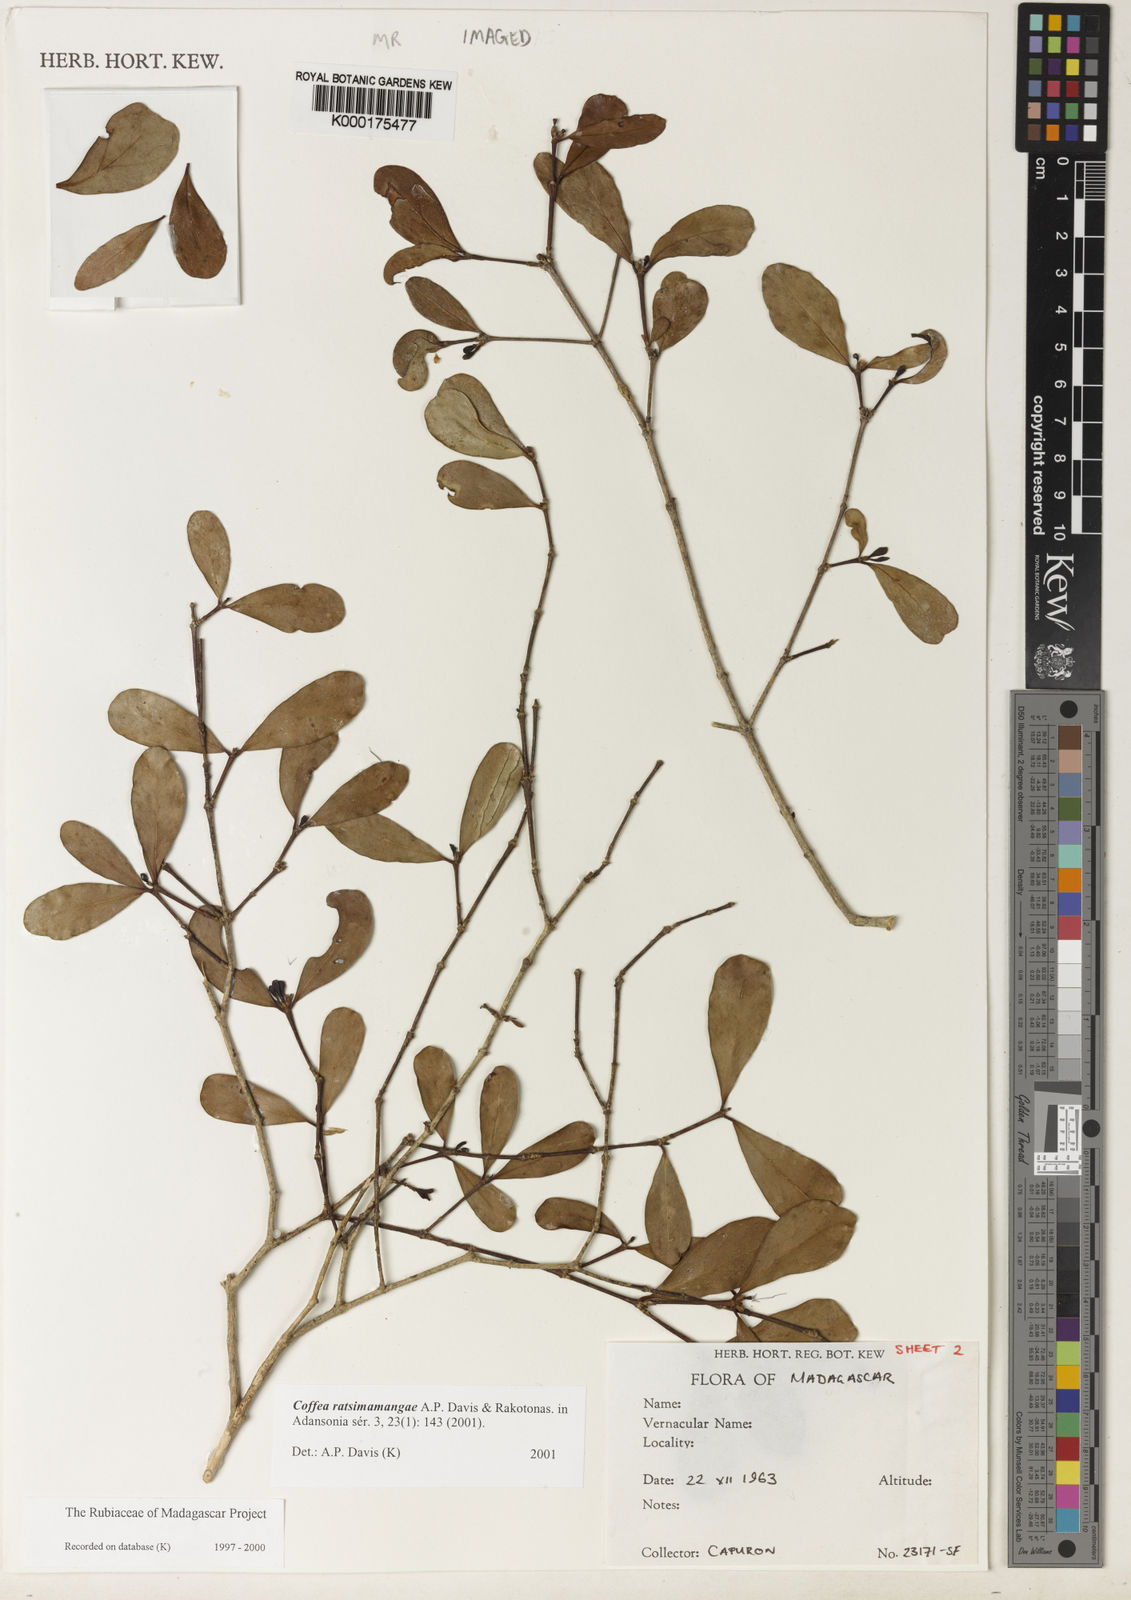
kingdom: Plantae
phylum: Tracheophyta
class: Magnoliopsida
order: Gentianales
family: Rubiaceae
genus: Coffea
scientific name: Coffea ratsimamangae
